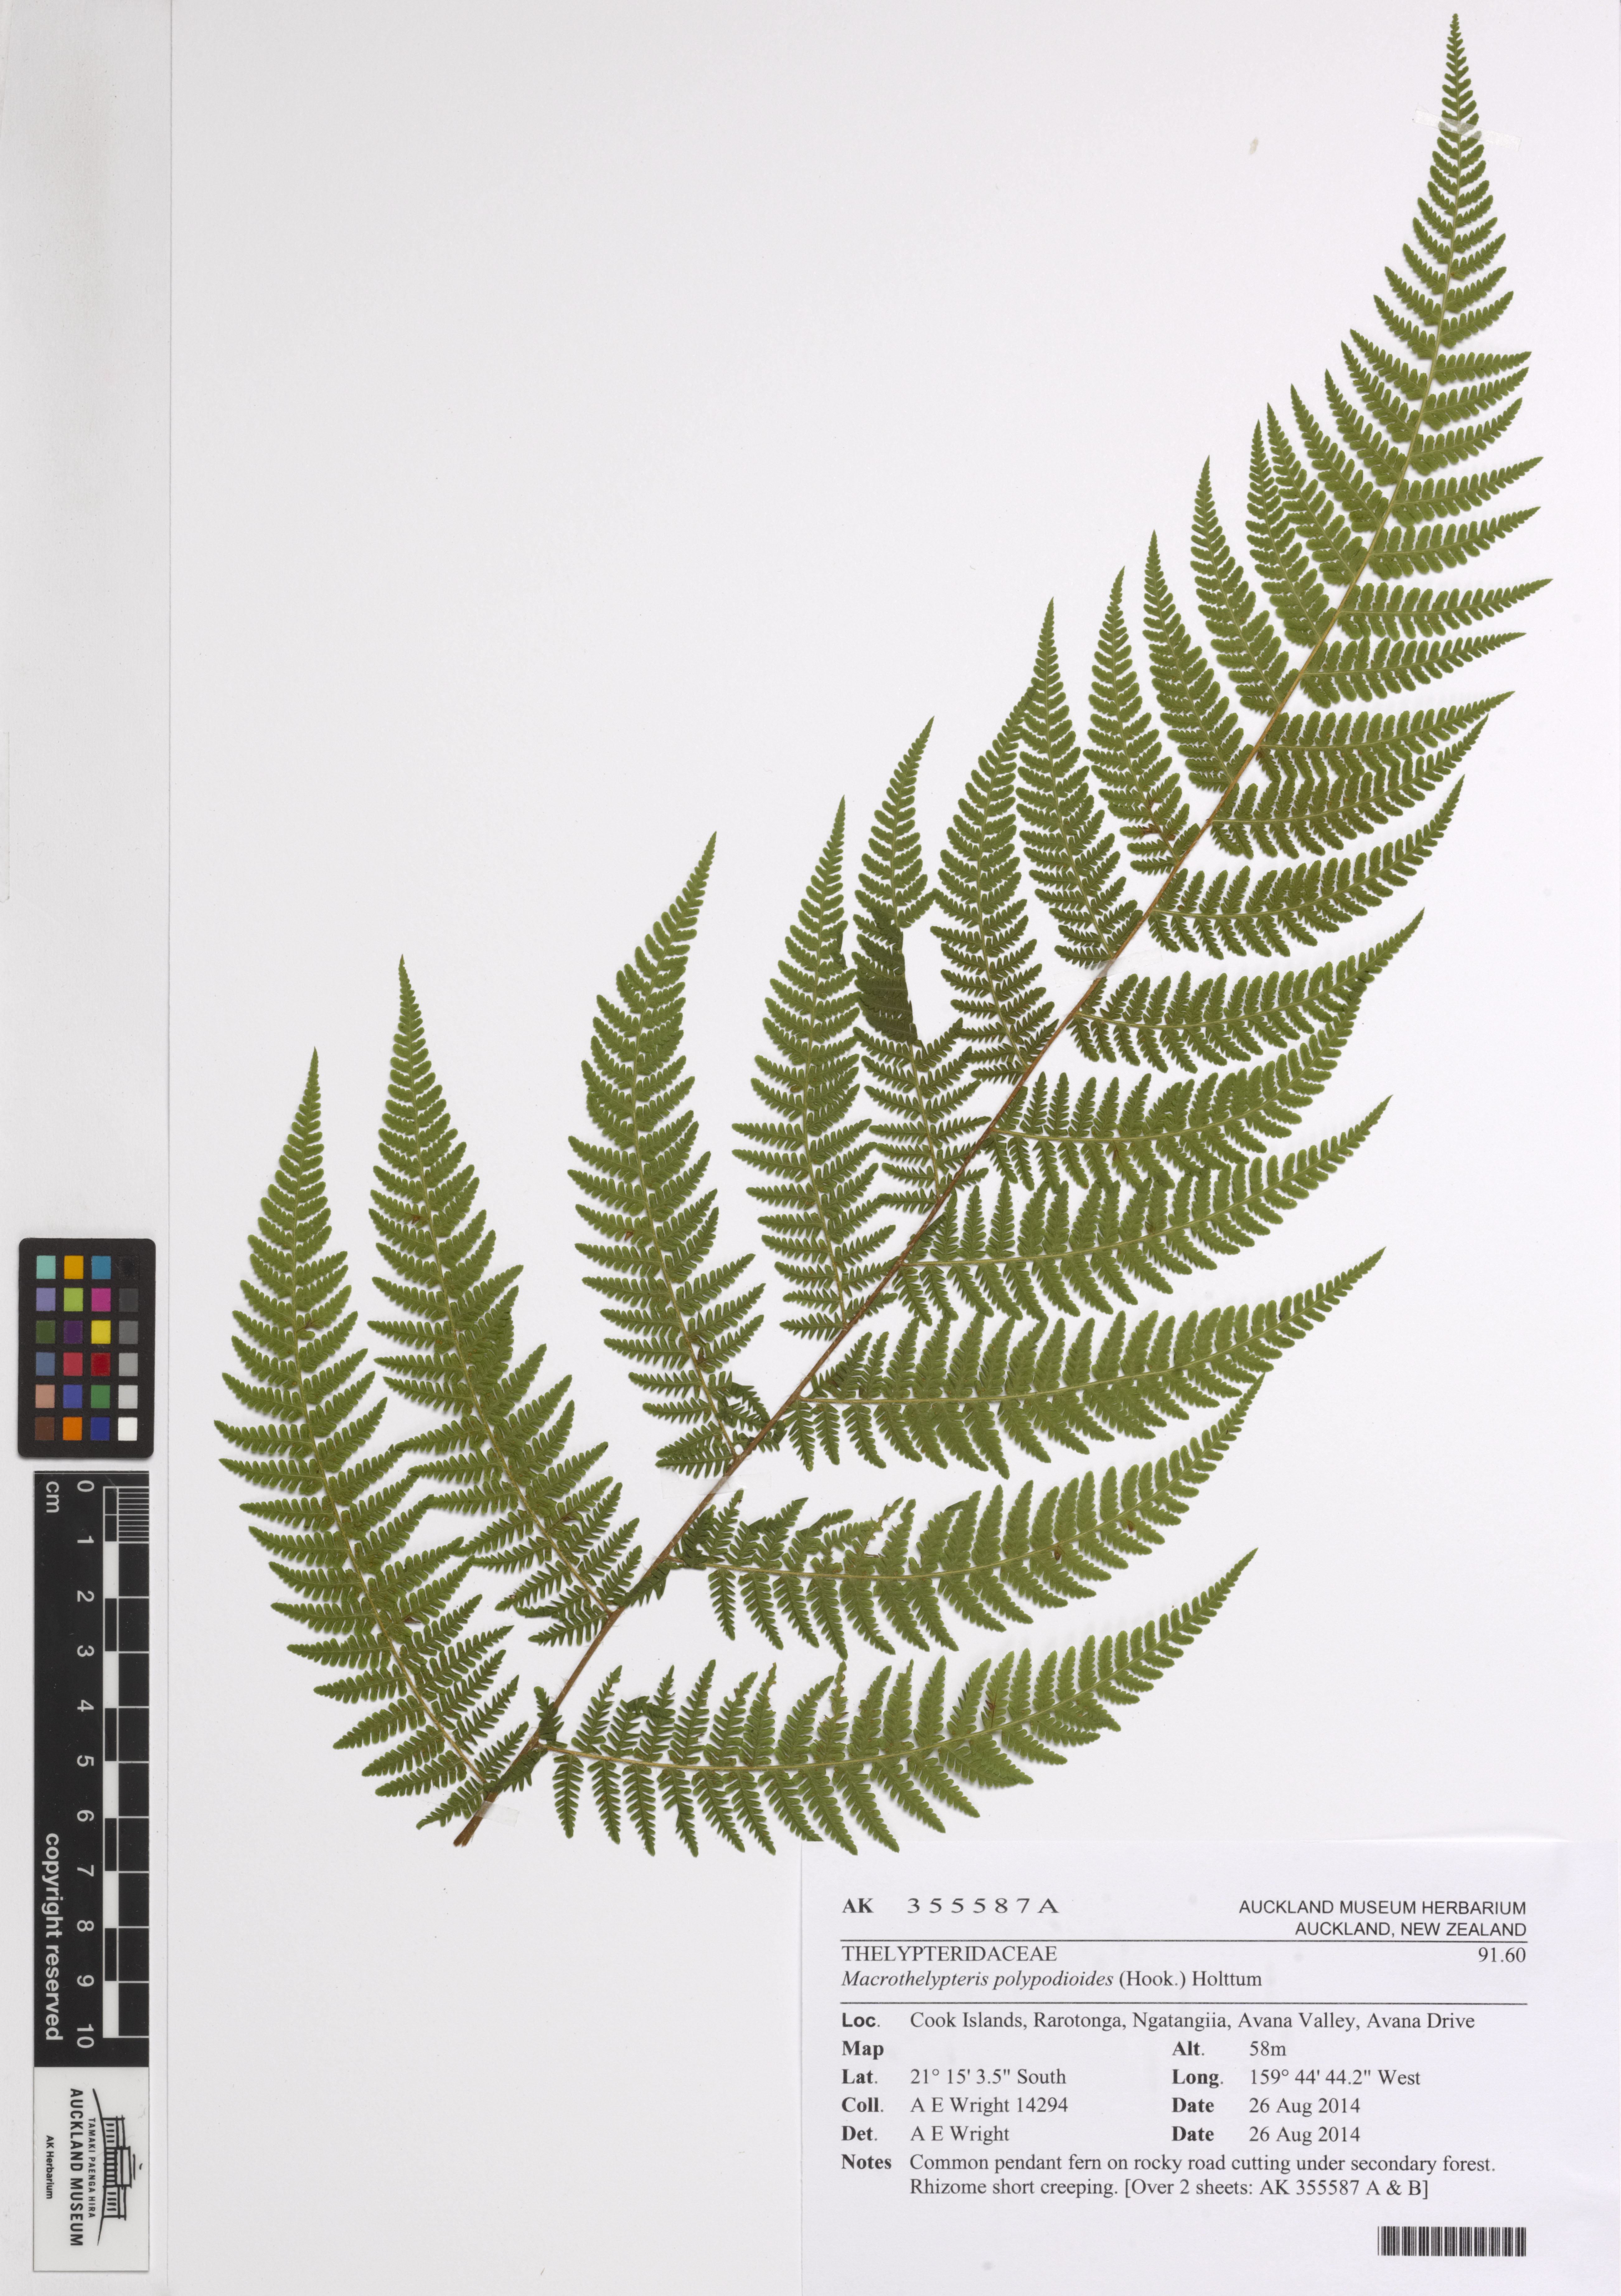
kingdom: Plantae
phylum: Tracheophyta
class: Polypodiopsida
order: Polypodiales
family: Thelypteridaceae
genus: Macrothelypteris
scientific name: Macrothelypteris polypodioides
